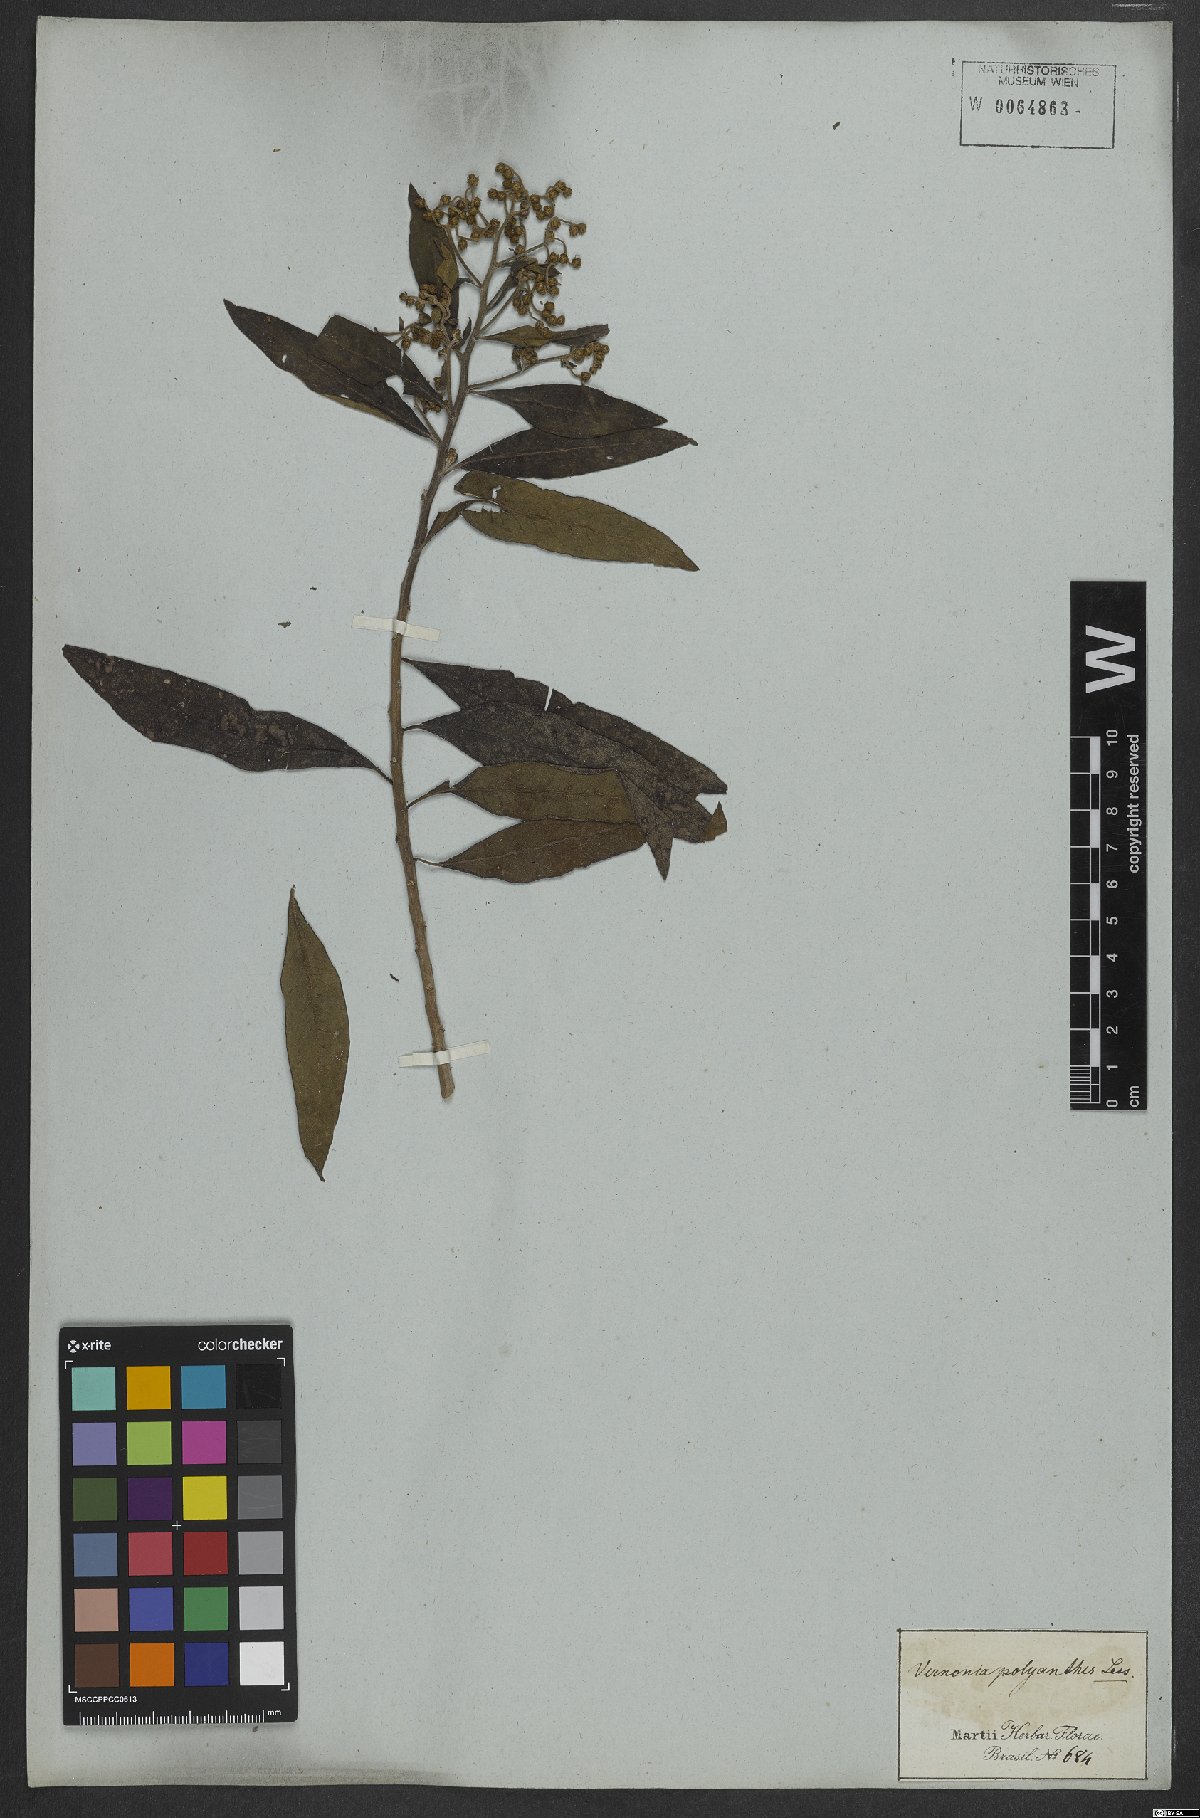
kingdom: Plantae
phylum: Tracheophyta
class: Magnoliopsida
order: Asterales
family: Asteraceae
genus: Vernonanthura
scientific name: Vernonanthura polyanthes
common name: Tree aster
